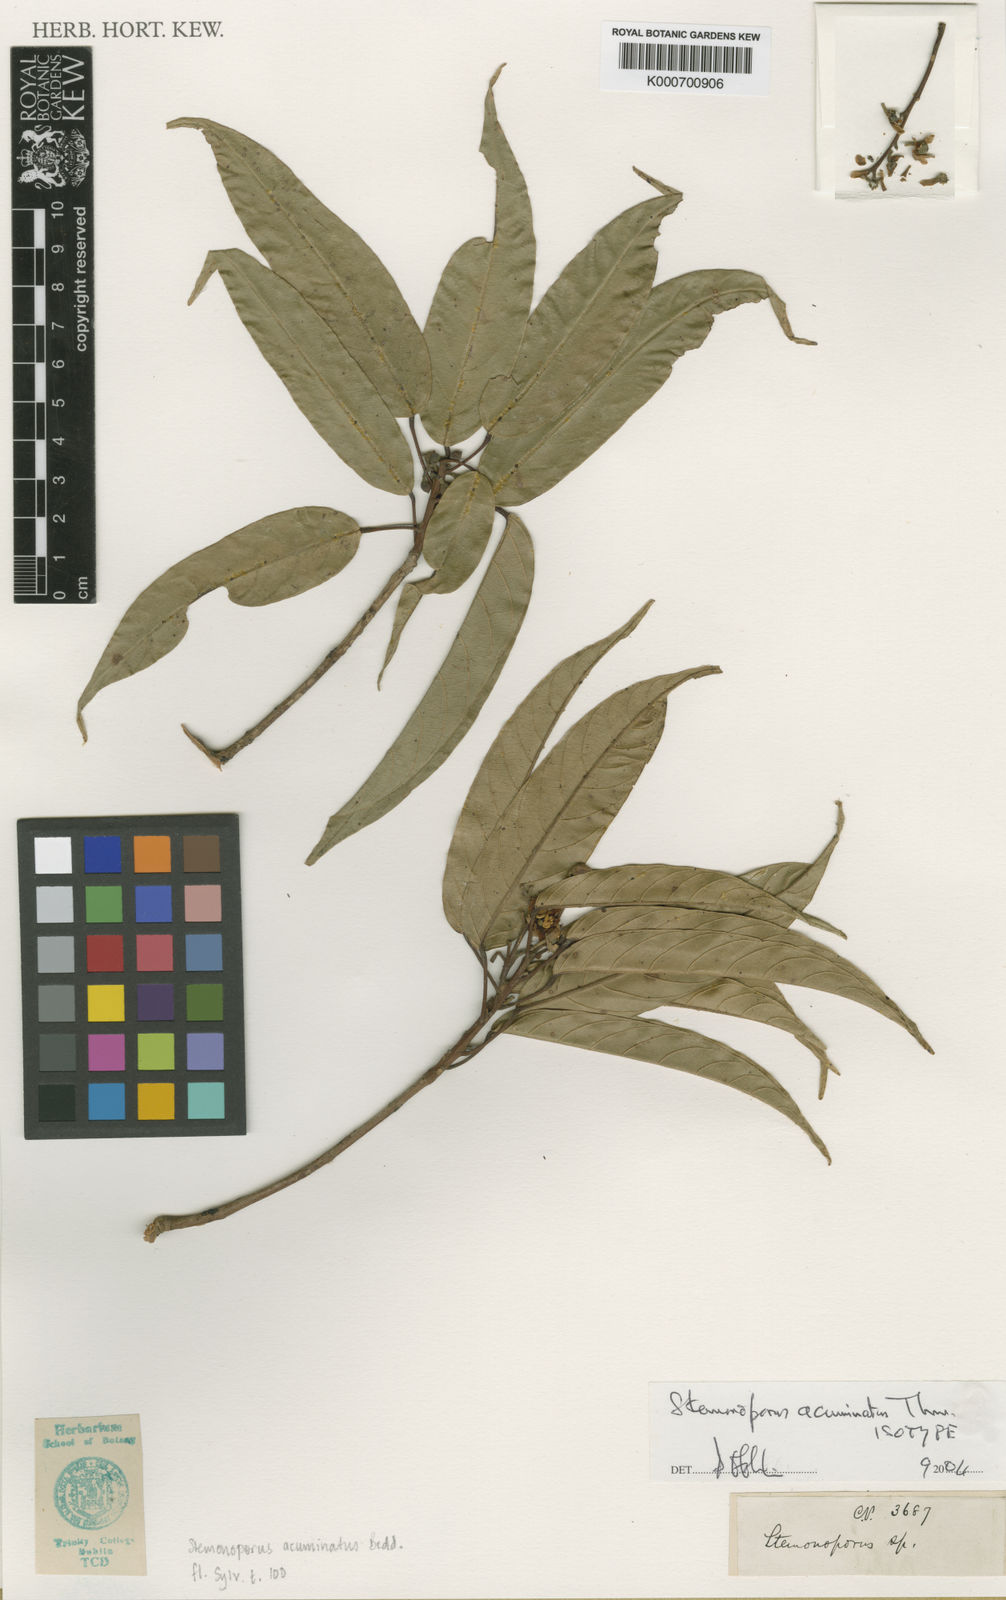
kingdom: Plantae
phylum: Tracheophyta
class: Magnoliopsida
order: Malvales
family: Dipterocarpaceae
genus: Stemonoporus
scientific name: Stemonoporus
